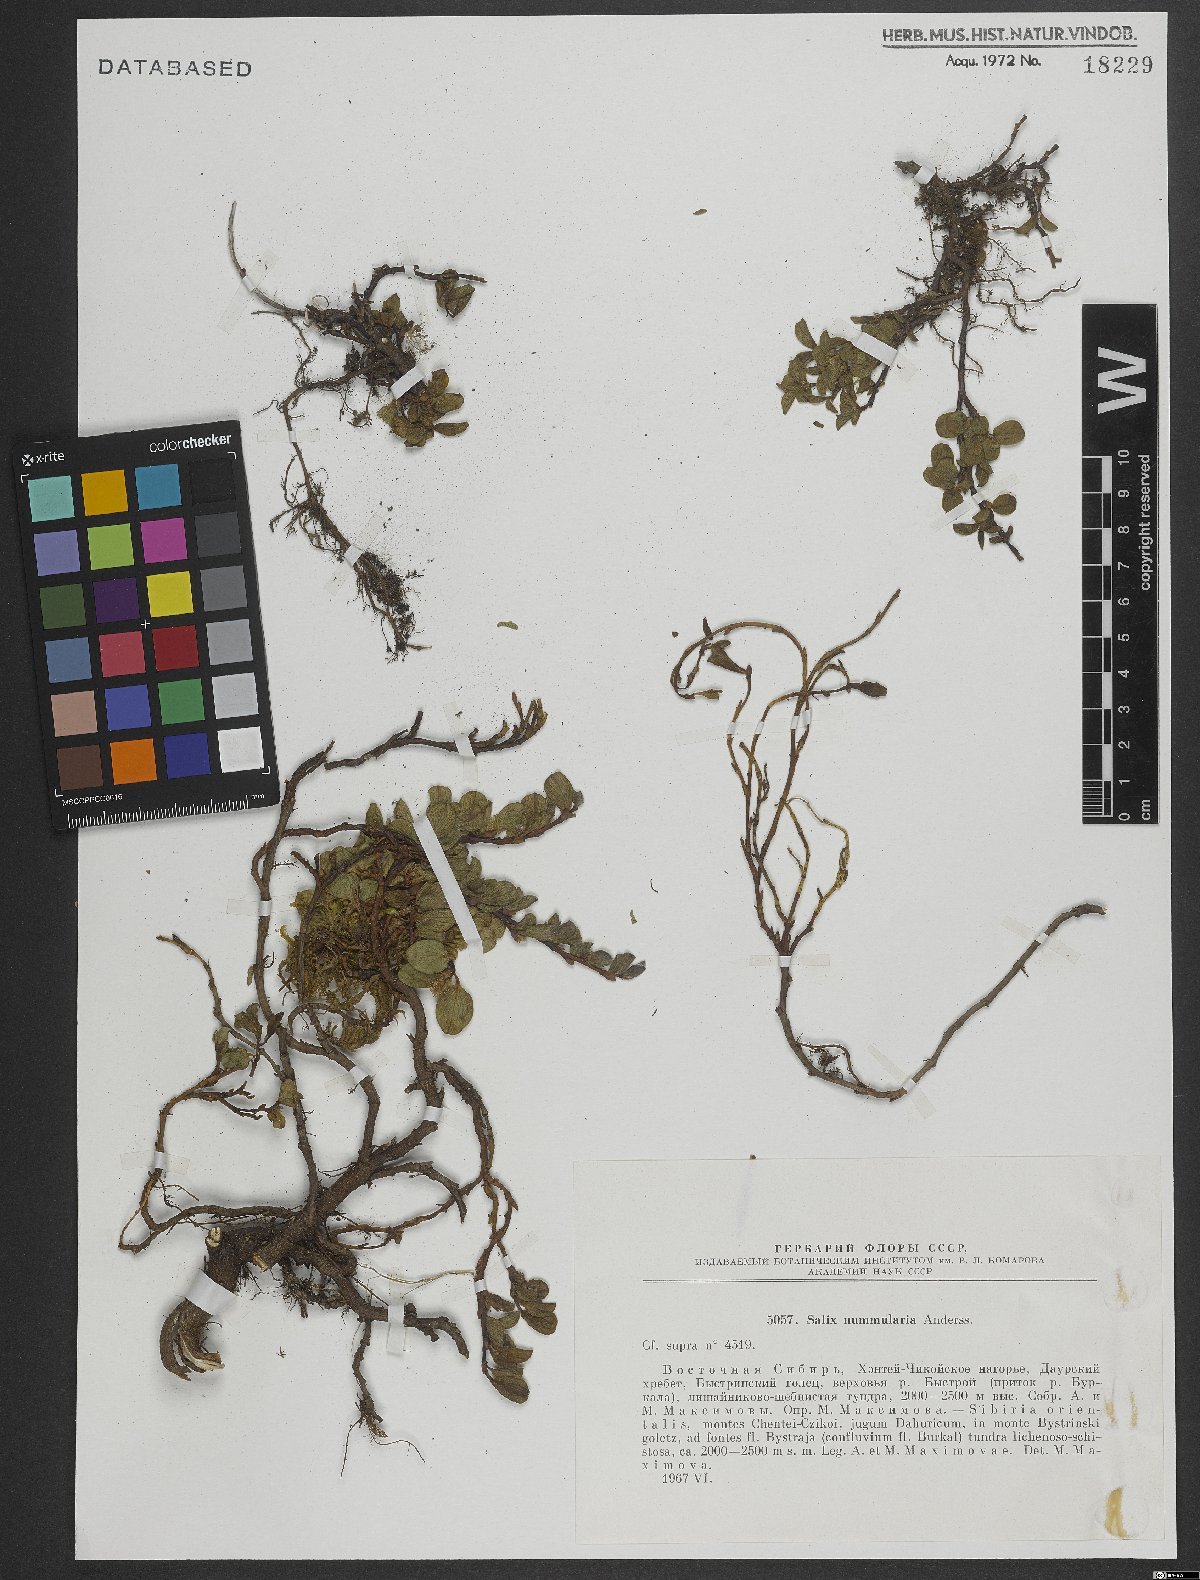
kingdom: Plantae
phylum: Tracheophyta
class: Magnoliopsida
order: Malpighiales
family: Salicaceae
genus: Salix
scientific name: Salix nummularia
